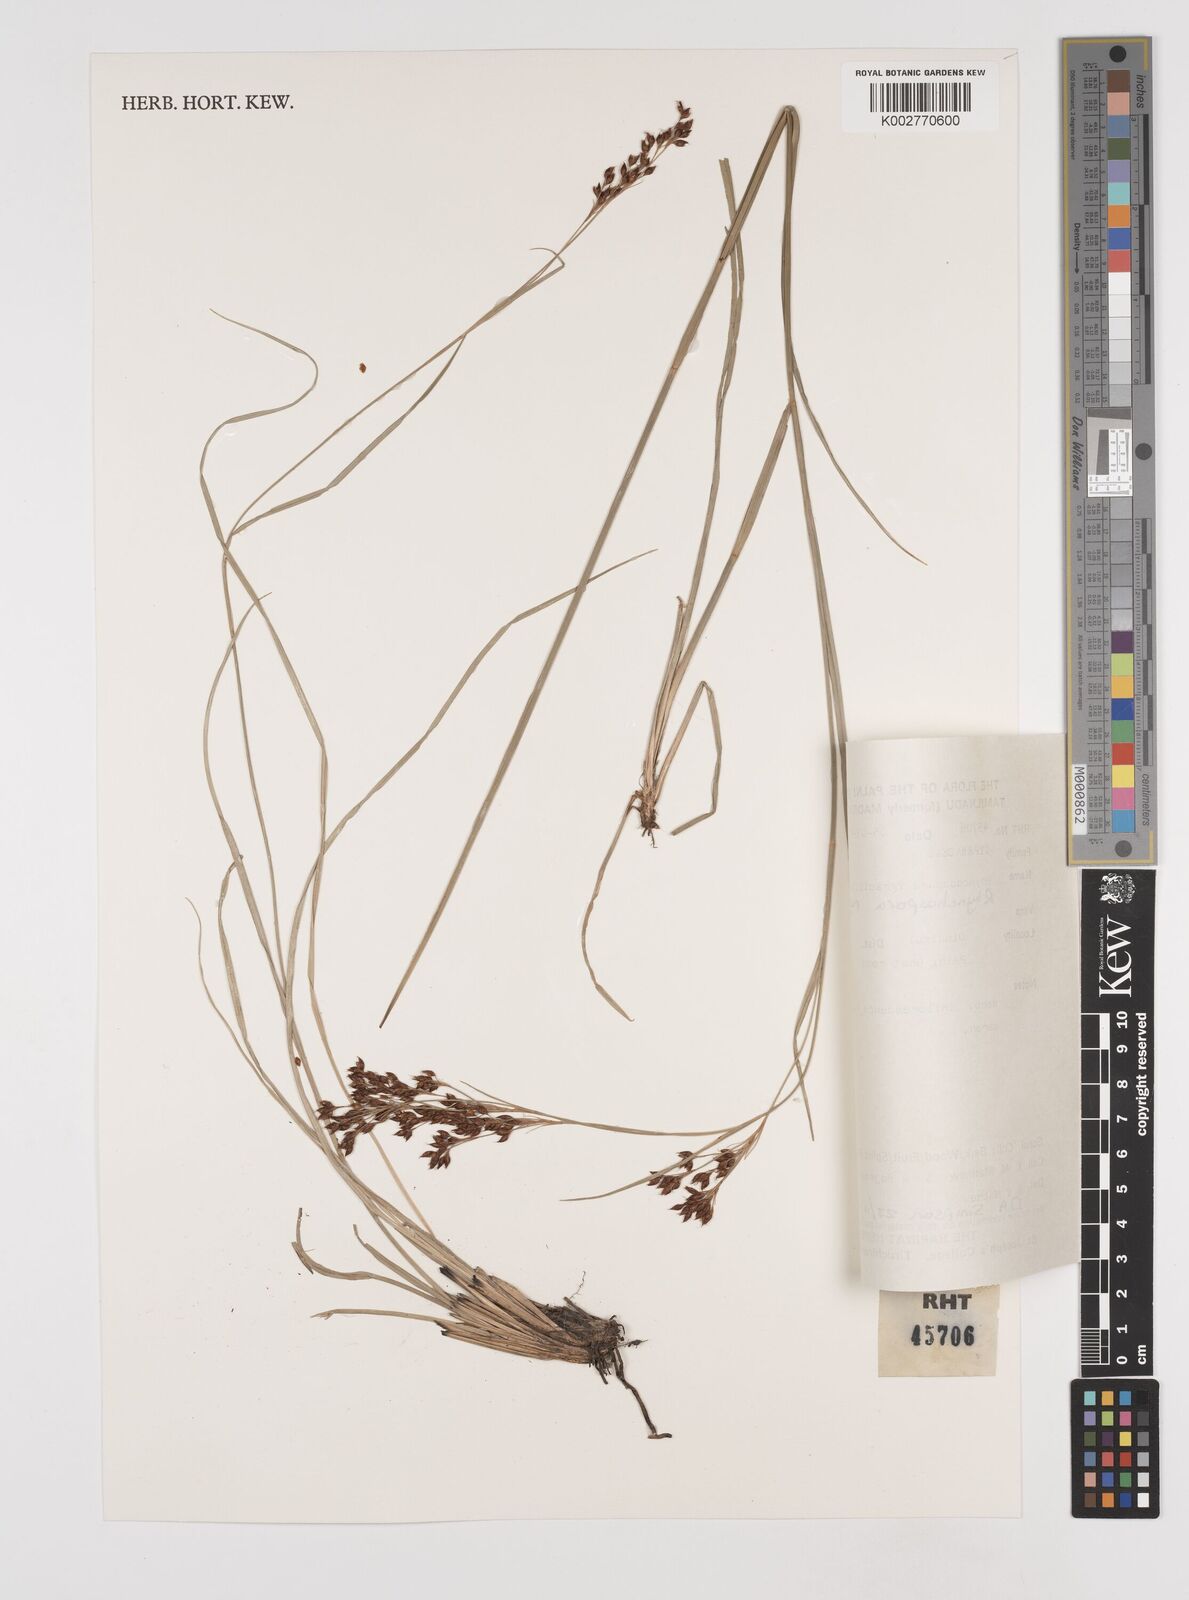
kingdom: Plantae
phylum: Tracheophyta
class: Liliopsida
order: Poales
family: Cyperaceae
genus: Rhynchospora
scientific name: Rhynchospora rugosa
